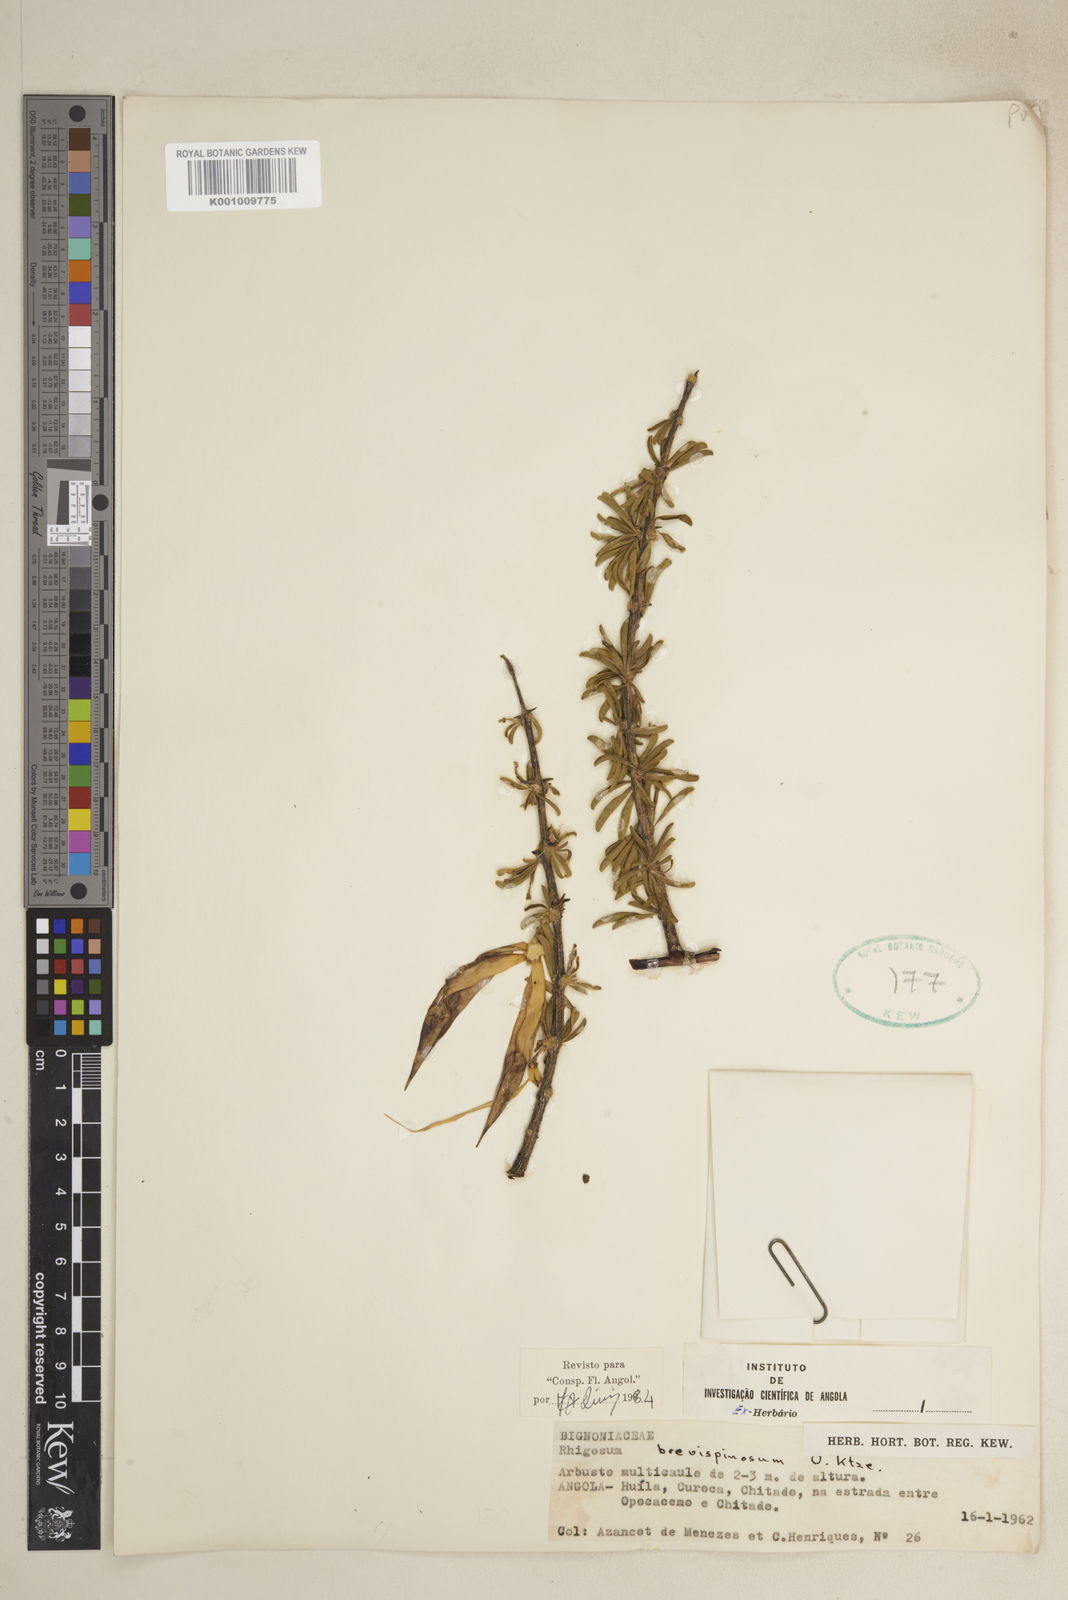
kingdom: Plantae
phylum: Tracheophyta
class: Magnoliopsida
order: Lamiales
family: Bignoniaceae
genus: Rhigozum
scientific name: Rhigozum brevispinosum
